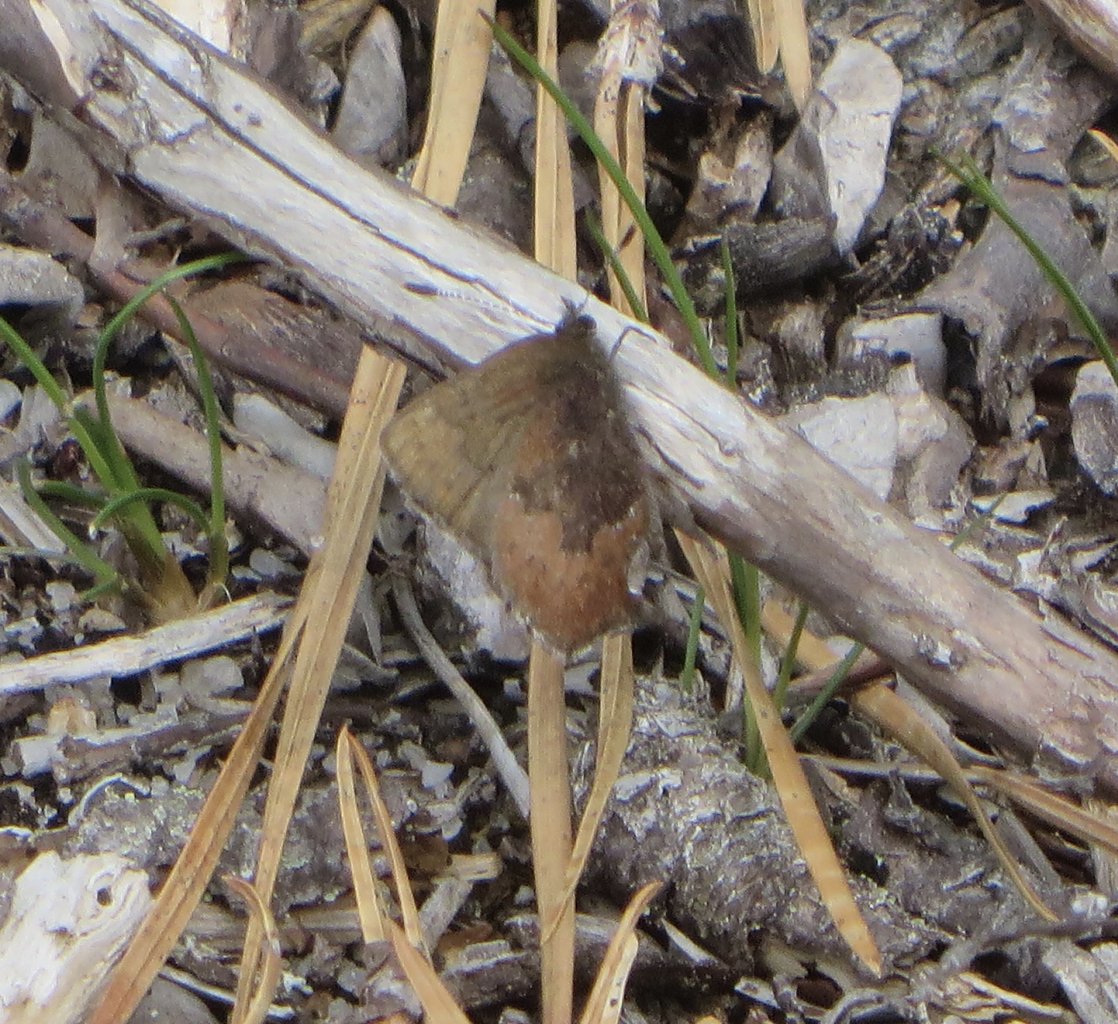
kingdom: Animalia
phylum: Arthropoda
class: Insecta
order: Lepidoptera
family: Lycaenidae
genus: Incisalia
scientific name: Incisalia irioides
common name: Brown Elfin
